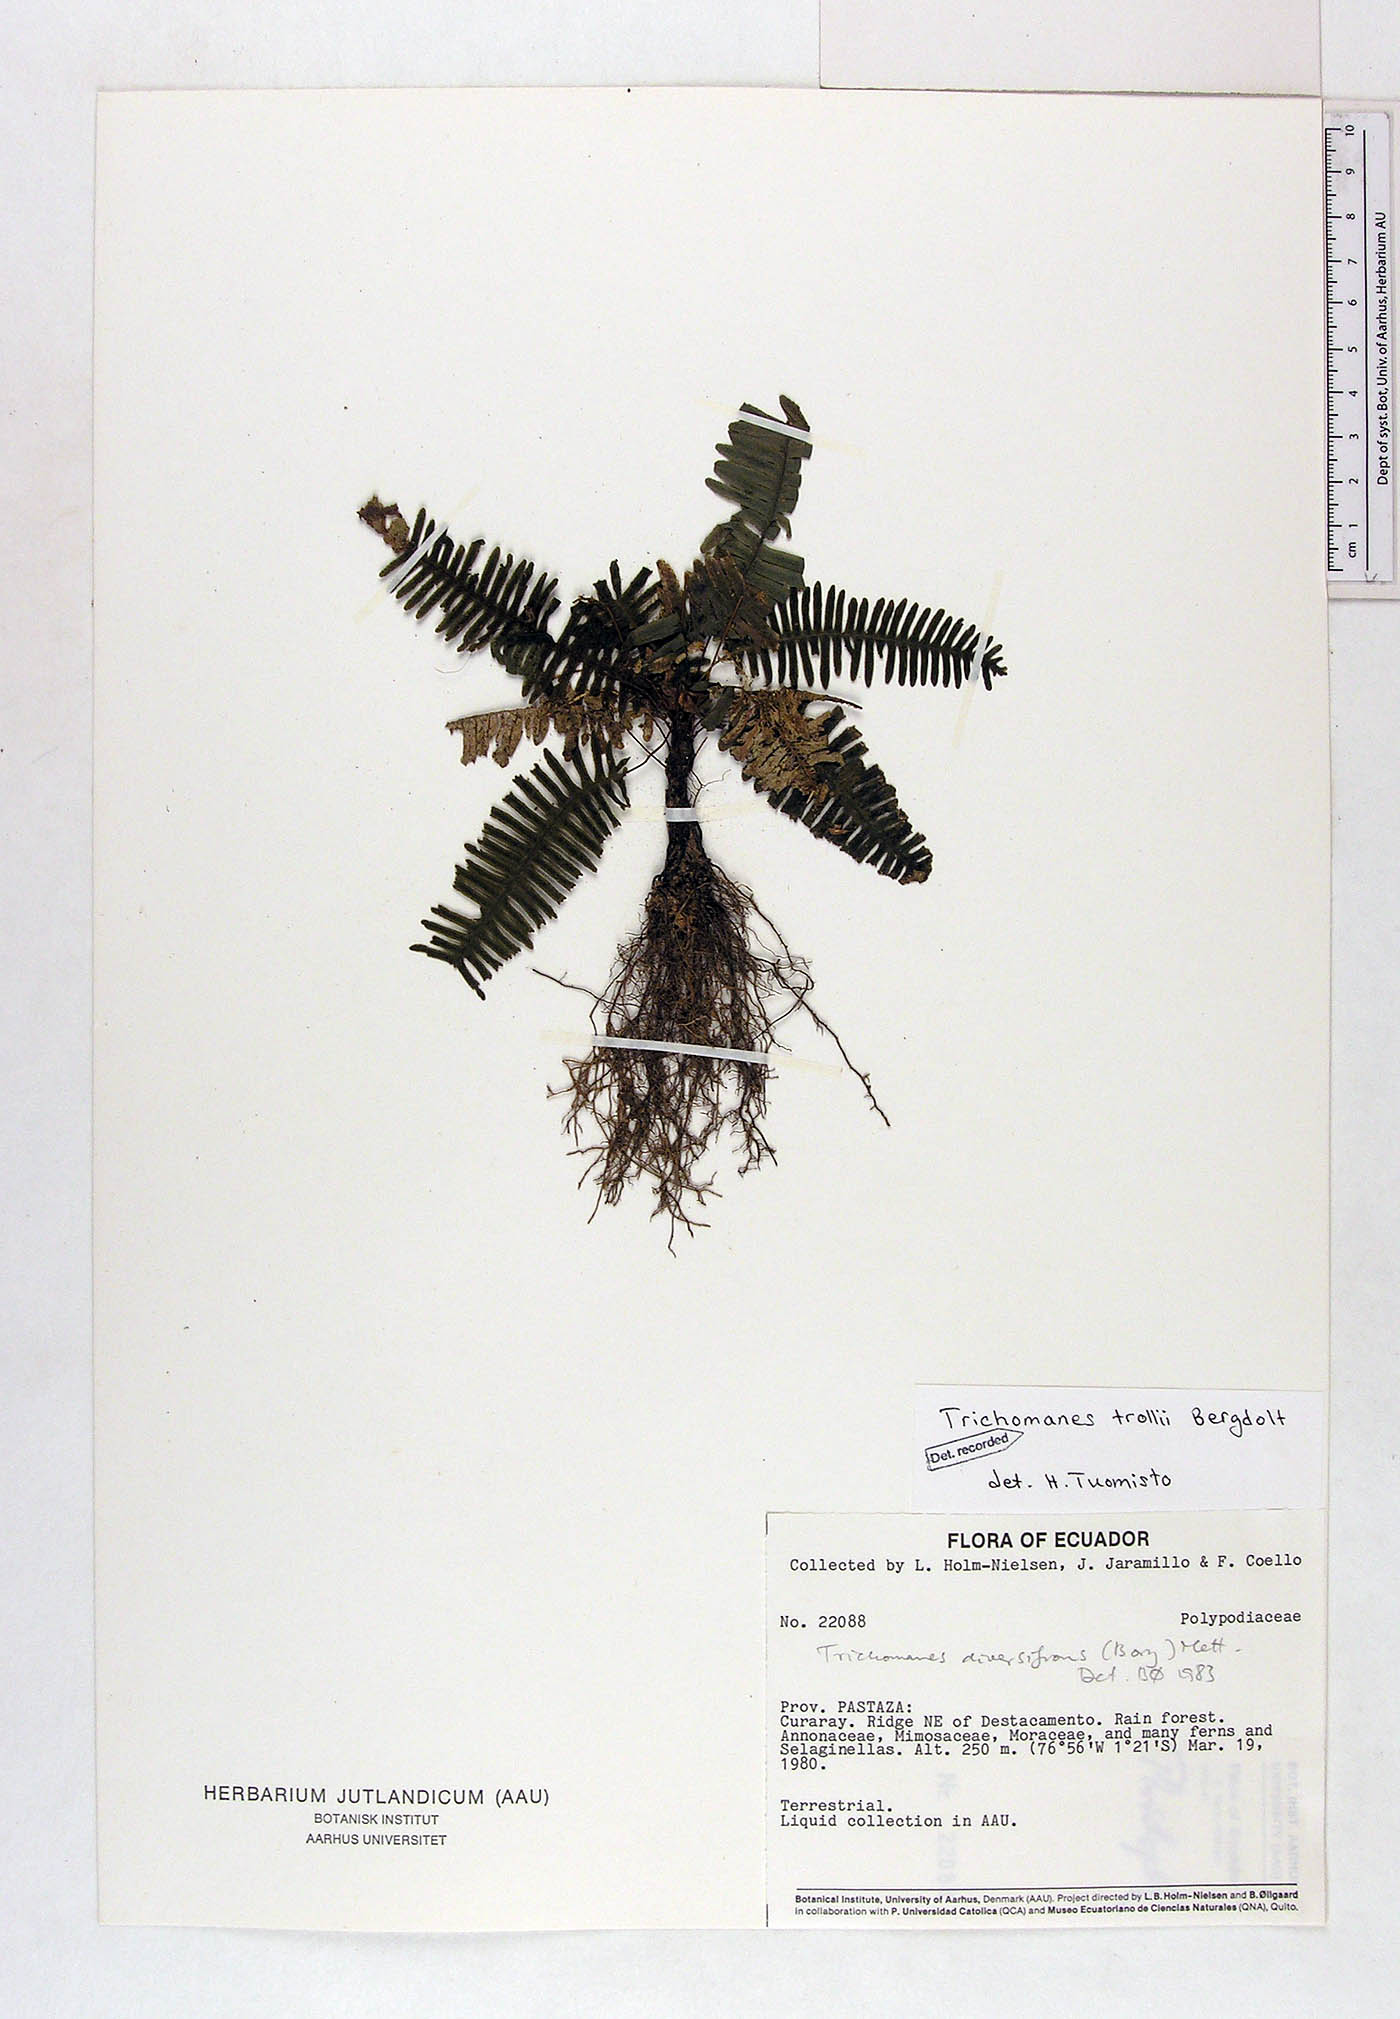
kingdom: Plantae
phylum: Tracheophyta
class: Polypodiopsida
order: Hymenophyllales
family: Hymenophyllaceae
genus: Trichomanes
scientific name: Trichomanes trollii
